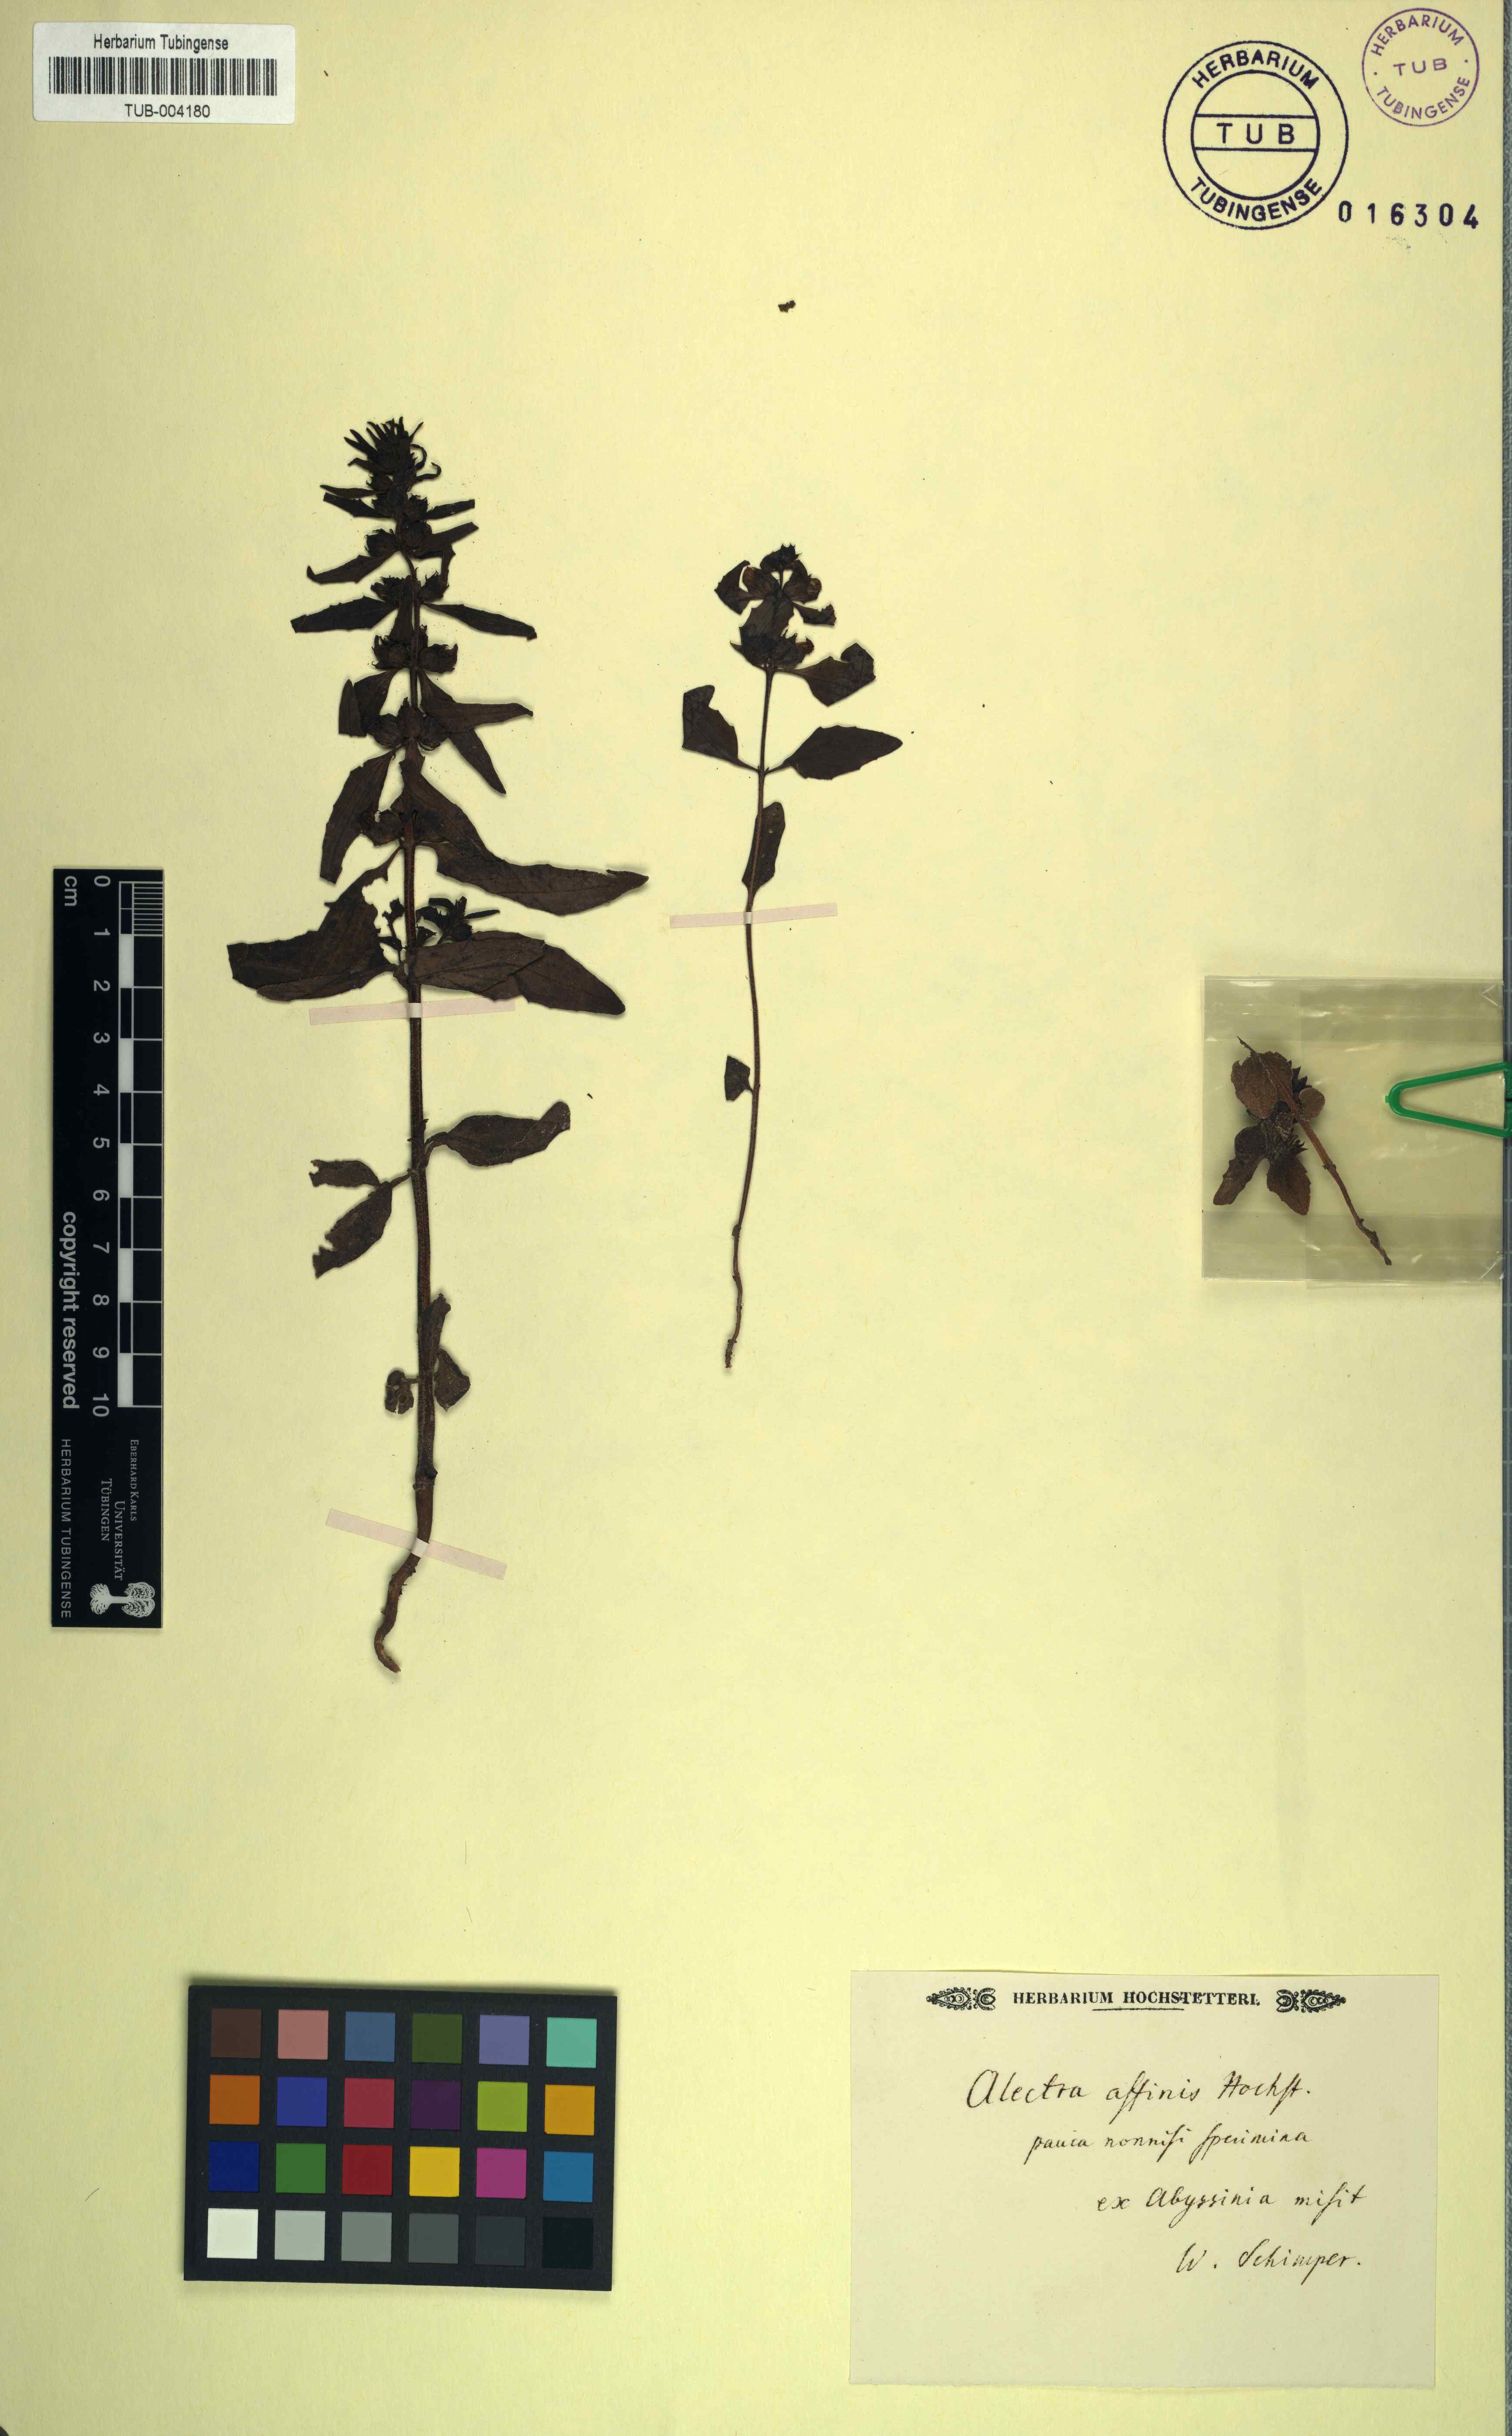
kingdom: Plantae
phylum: Tracheophyta
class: Magnoliopsida
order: Lamiales
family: Orobanchaceae
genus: Alectra
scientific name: Alectra
